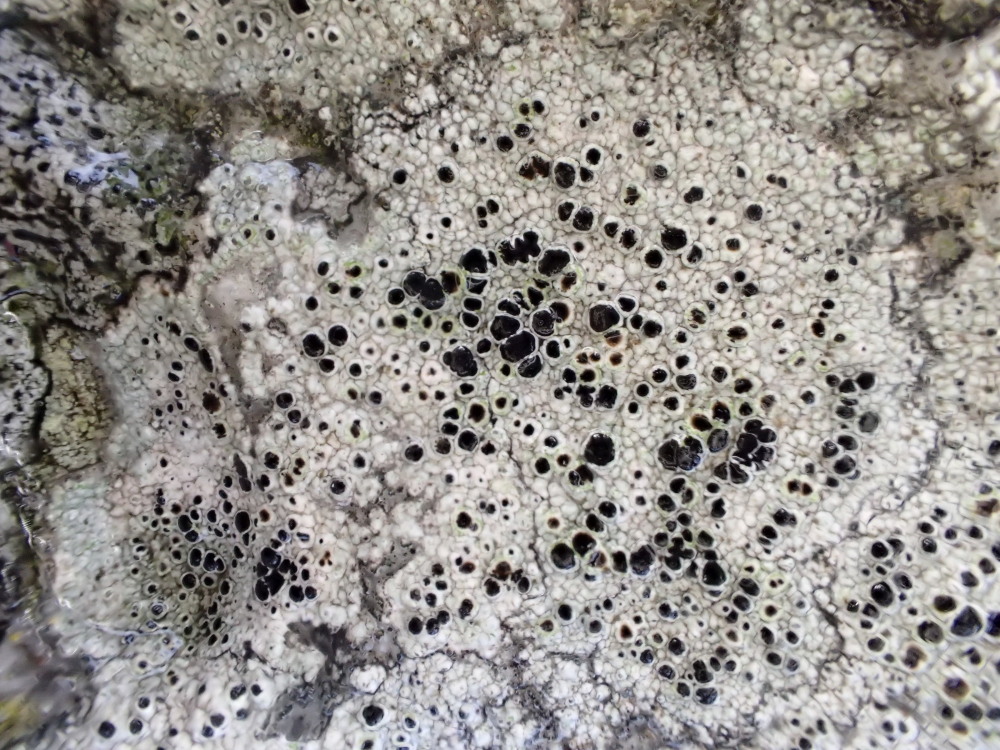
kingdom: Fungi
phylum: Ascomycota
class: Lecanoromycetes
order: Lecanorales
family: Lecanoraceae
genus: Lecanora
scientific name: Lecanora gangaleoides
